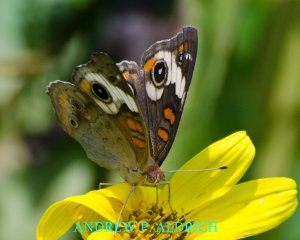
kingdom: Animalia
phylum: Arthropoda
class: Insecta
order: Lepidoptera
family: Nymphalidae
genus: Junonia
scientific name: Junonia coenia
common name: Common Buckeye
